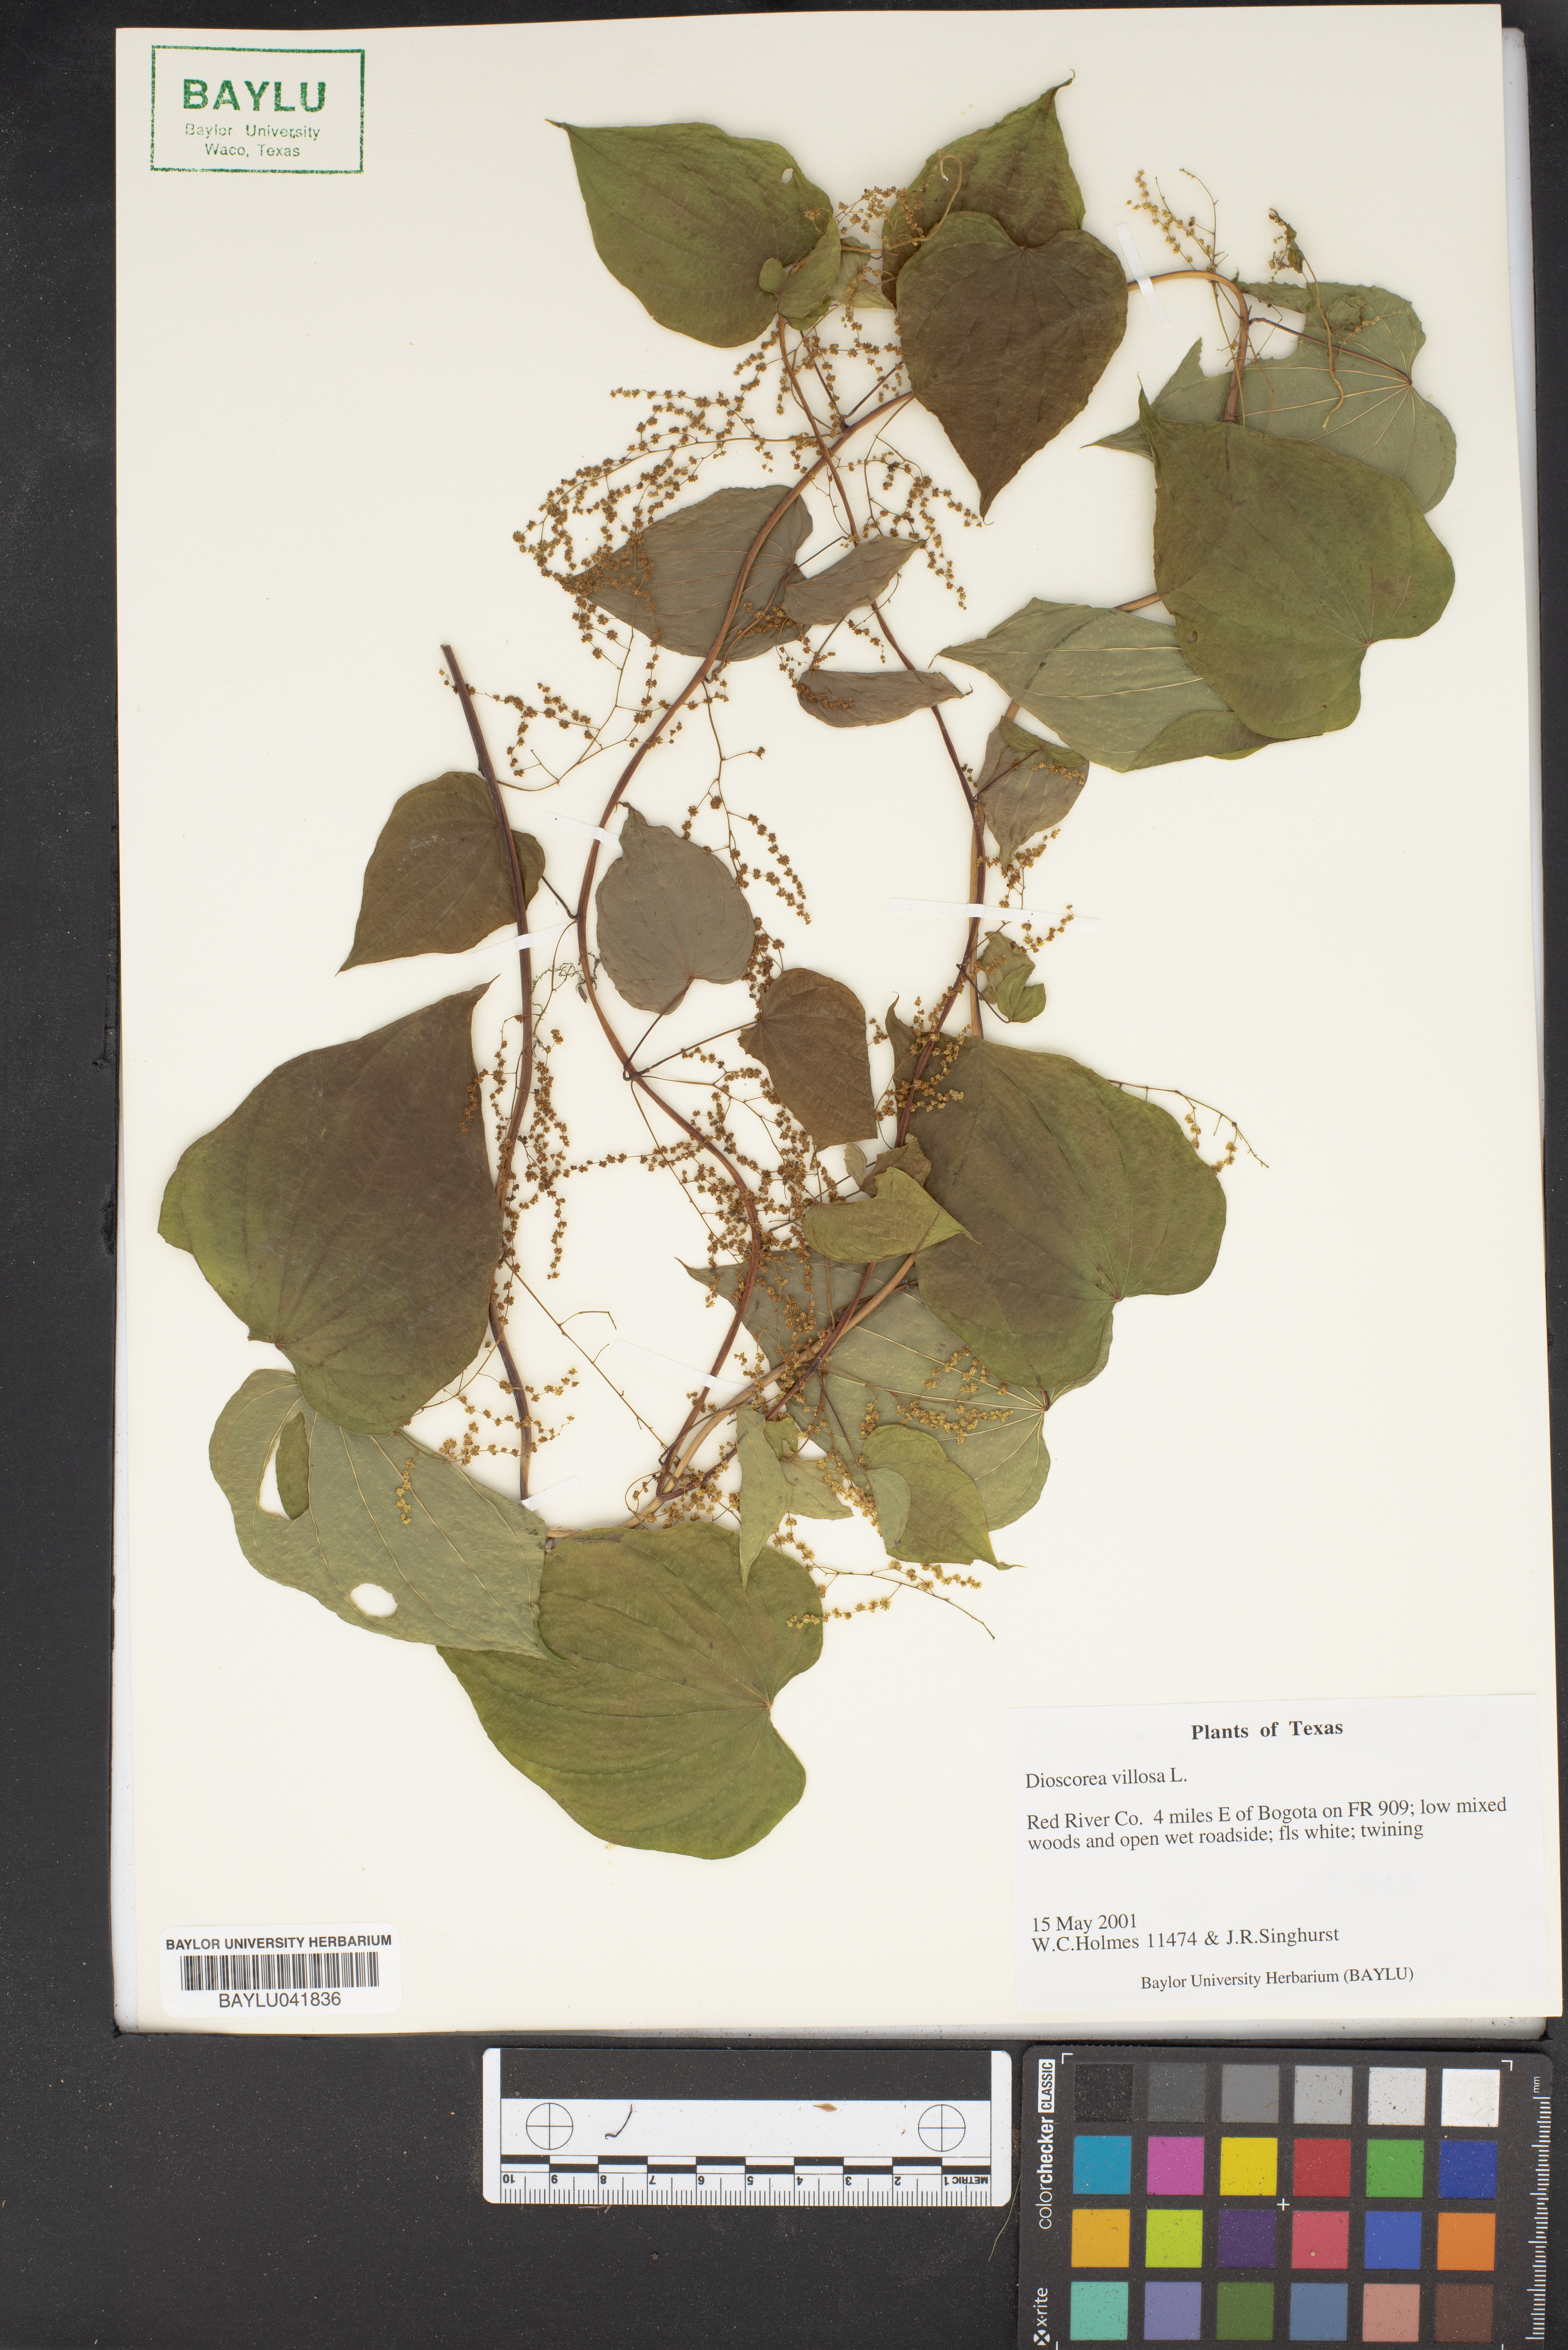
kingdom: Plantae
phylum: Tracheophyta
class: Liliopsida
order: Dioscoreales
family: Dioscoreaceae
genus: Dioscorea
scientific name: Dioscorea villosa
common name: Wild yam
